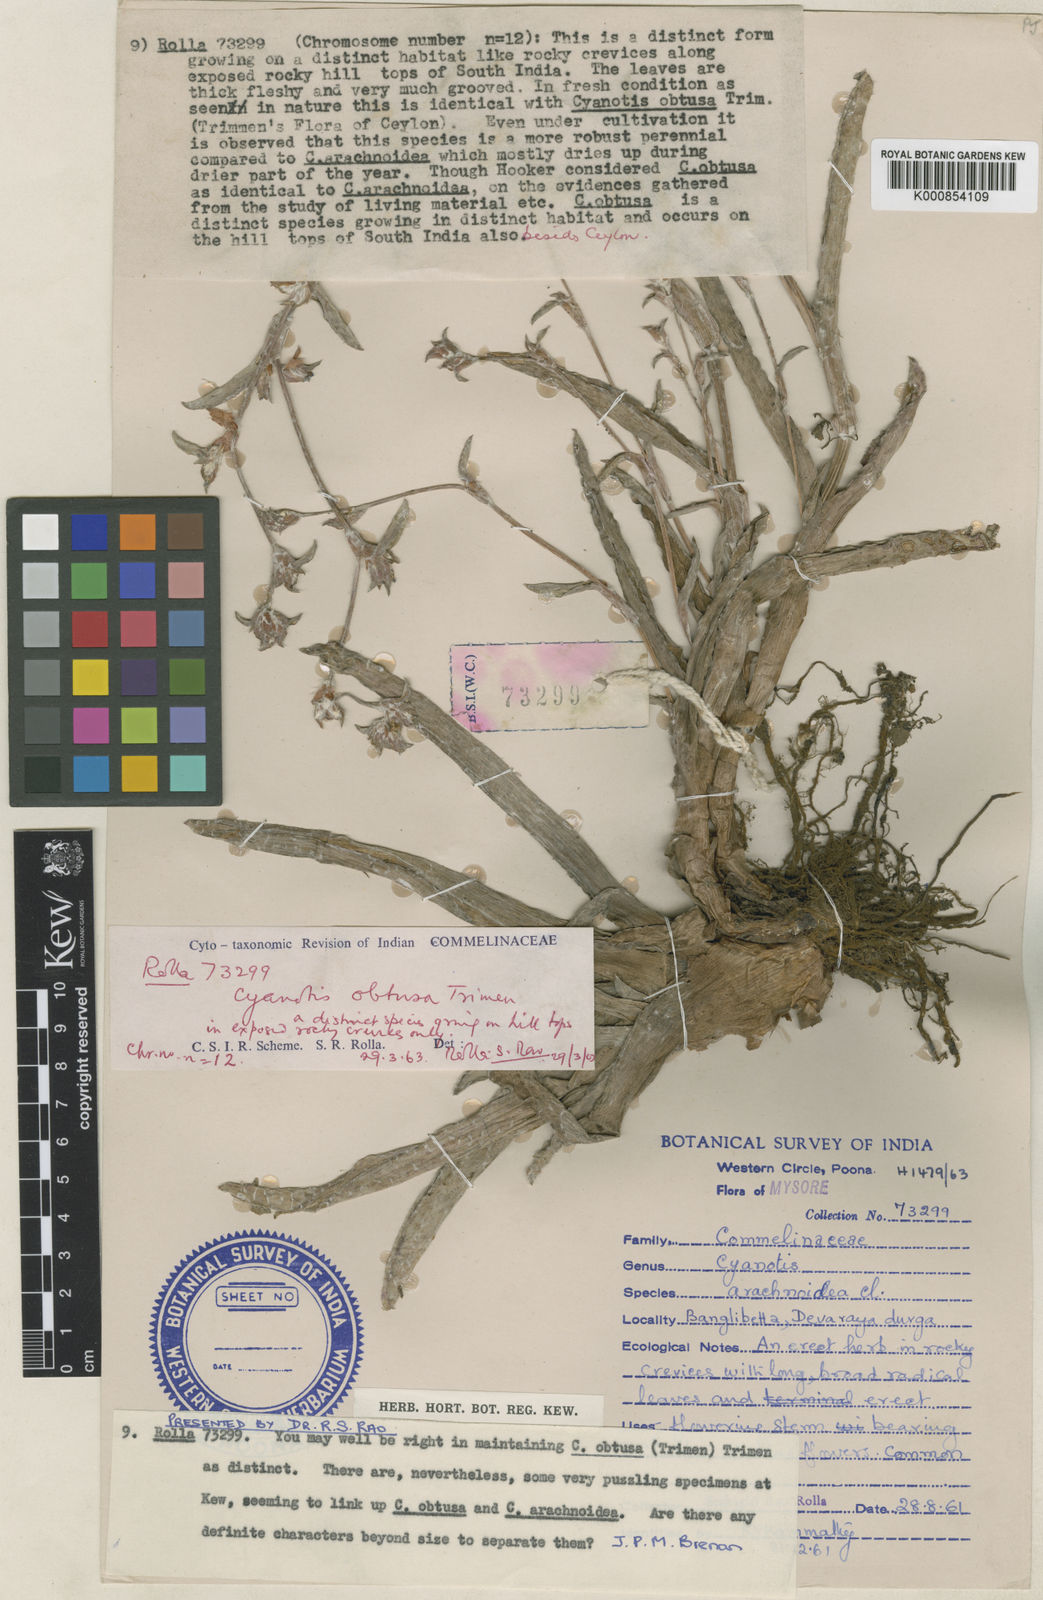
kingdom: Plantae
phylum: Tracheophyta
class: Liliopsida
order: Commelinales
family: Commelinaceae
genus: Cyanotis
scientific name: Cyanotis
